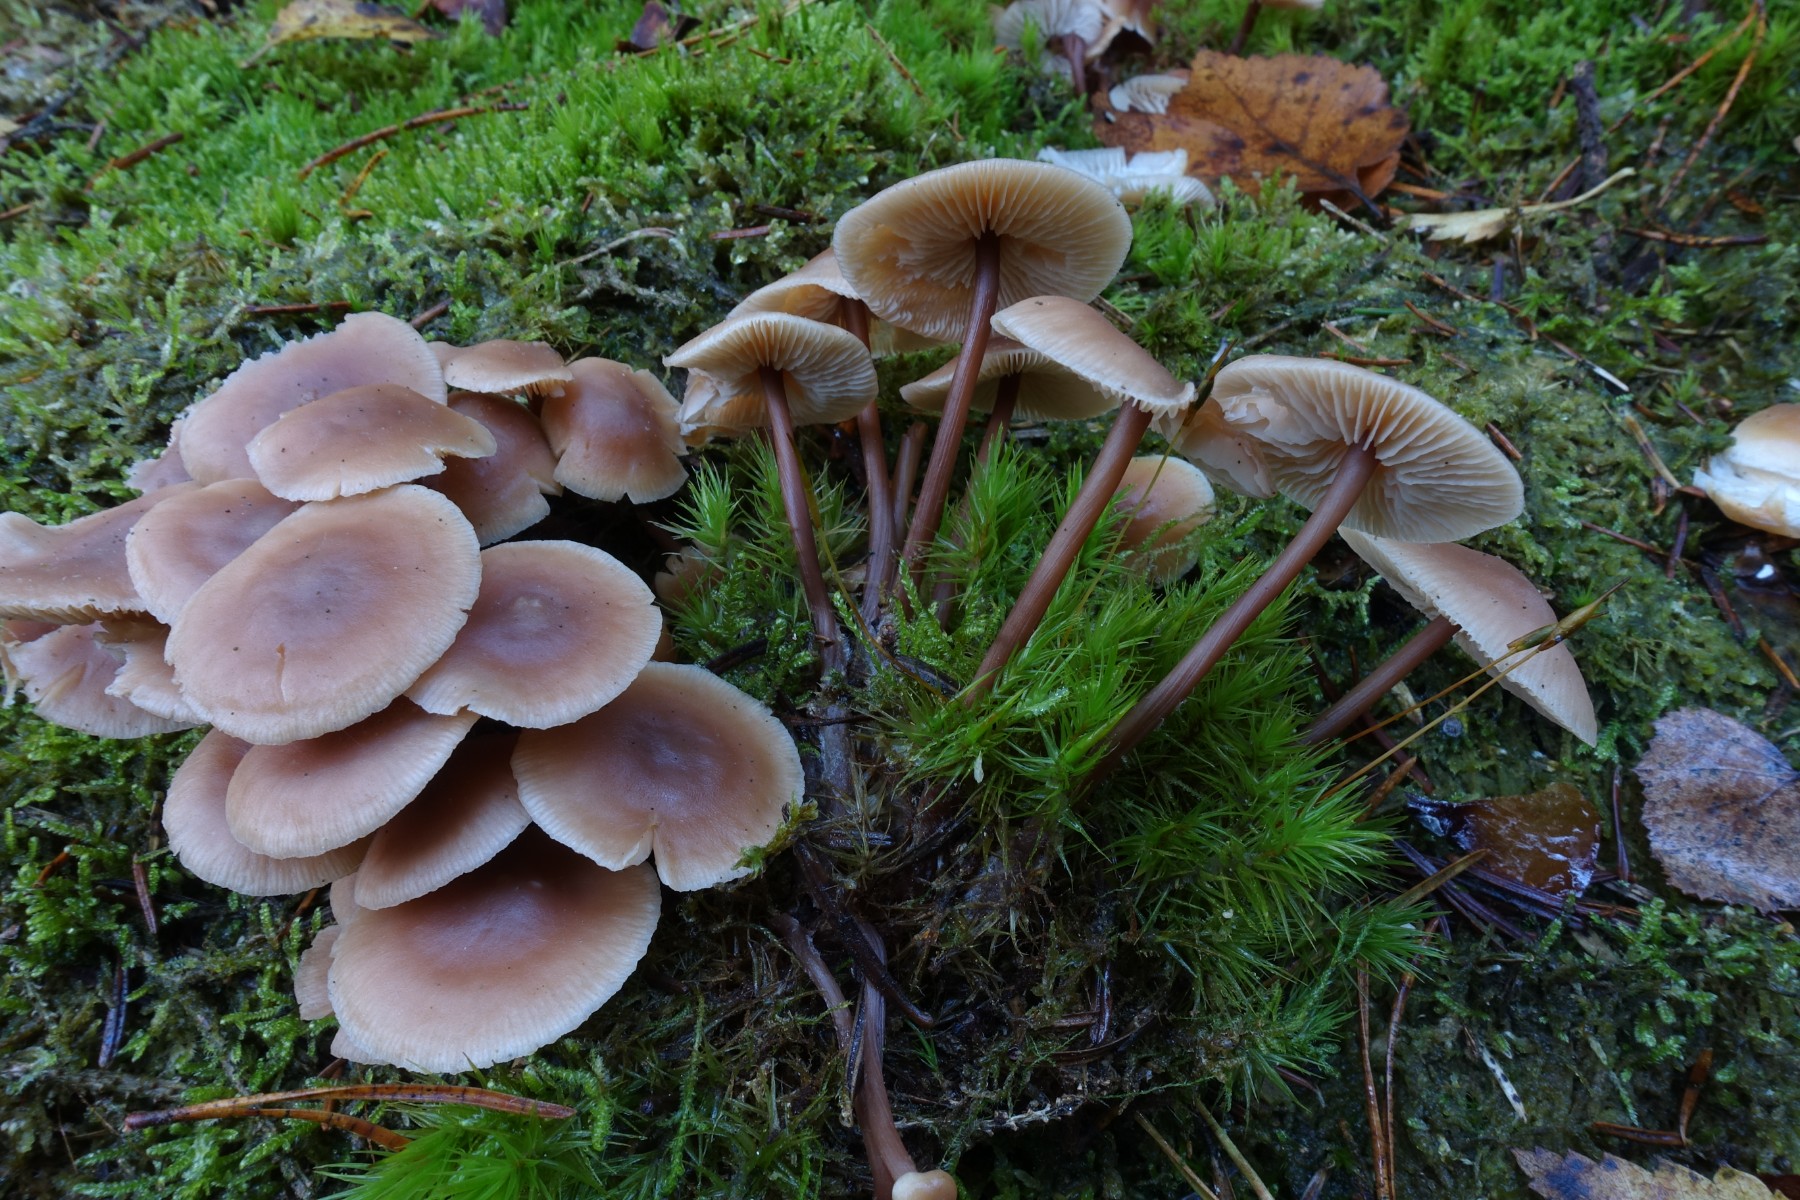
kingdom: Fungi
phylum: Basidiomycota
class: Agaricomycetes
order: Agaricales
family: Omphalotaceae
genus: Connopus
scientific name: Connopus acervatus
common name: tue-fladhat
